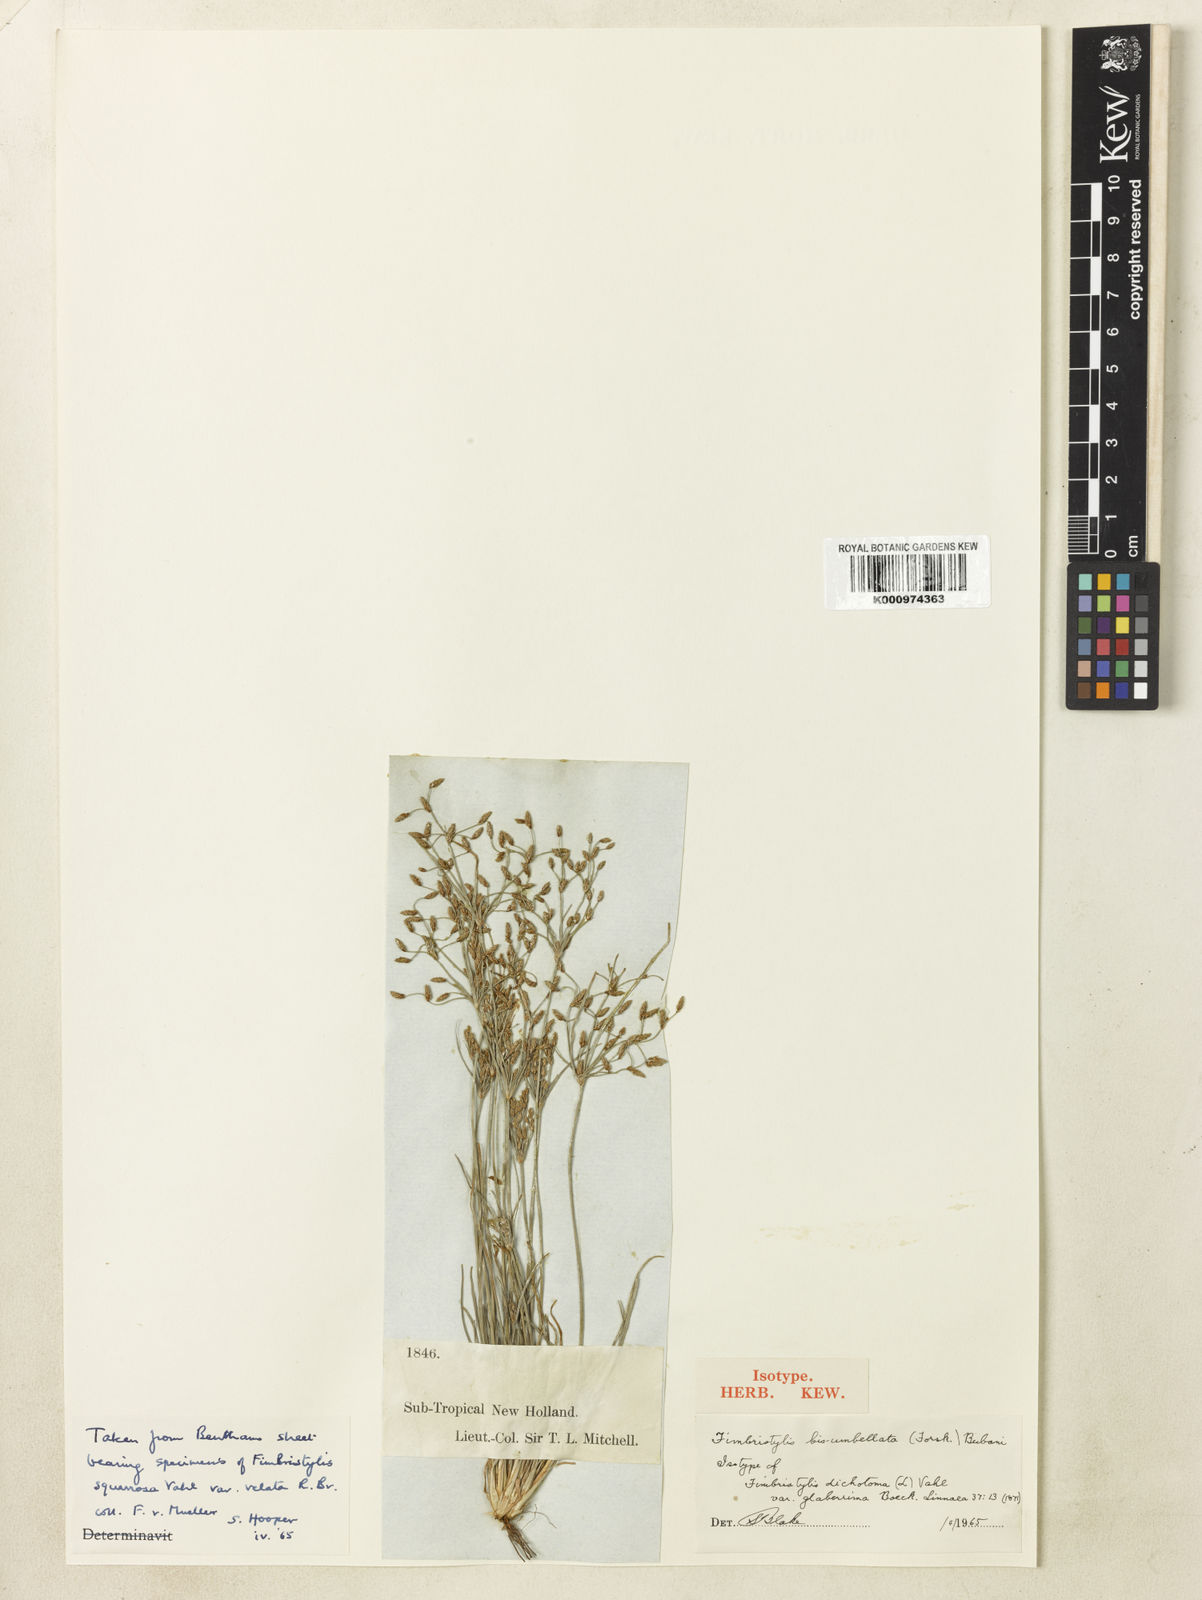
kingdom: Plantae
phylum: Tracheophyta
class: Liliopsida
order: Poales
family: Cyperaceae
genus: Fimbristylis
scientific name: Fimbristylis bisumbellata
